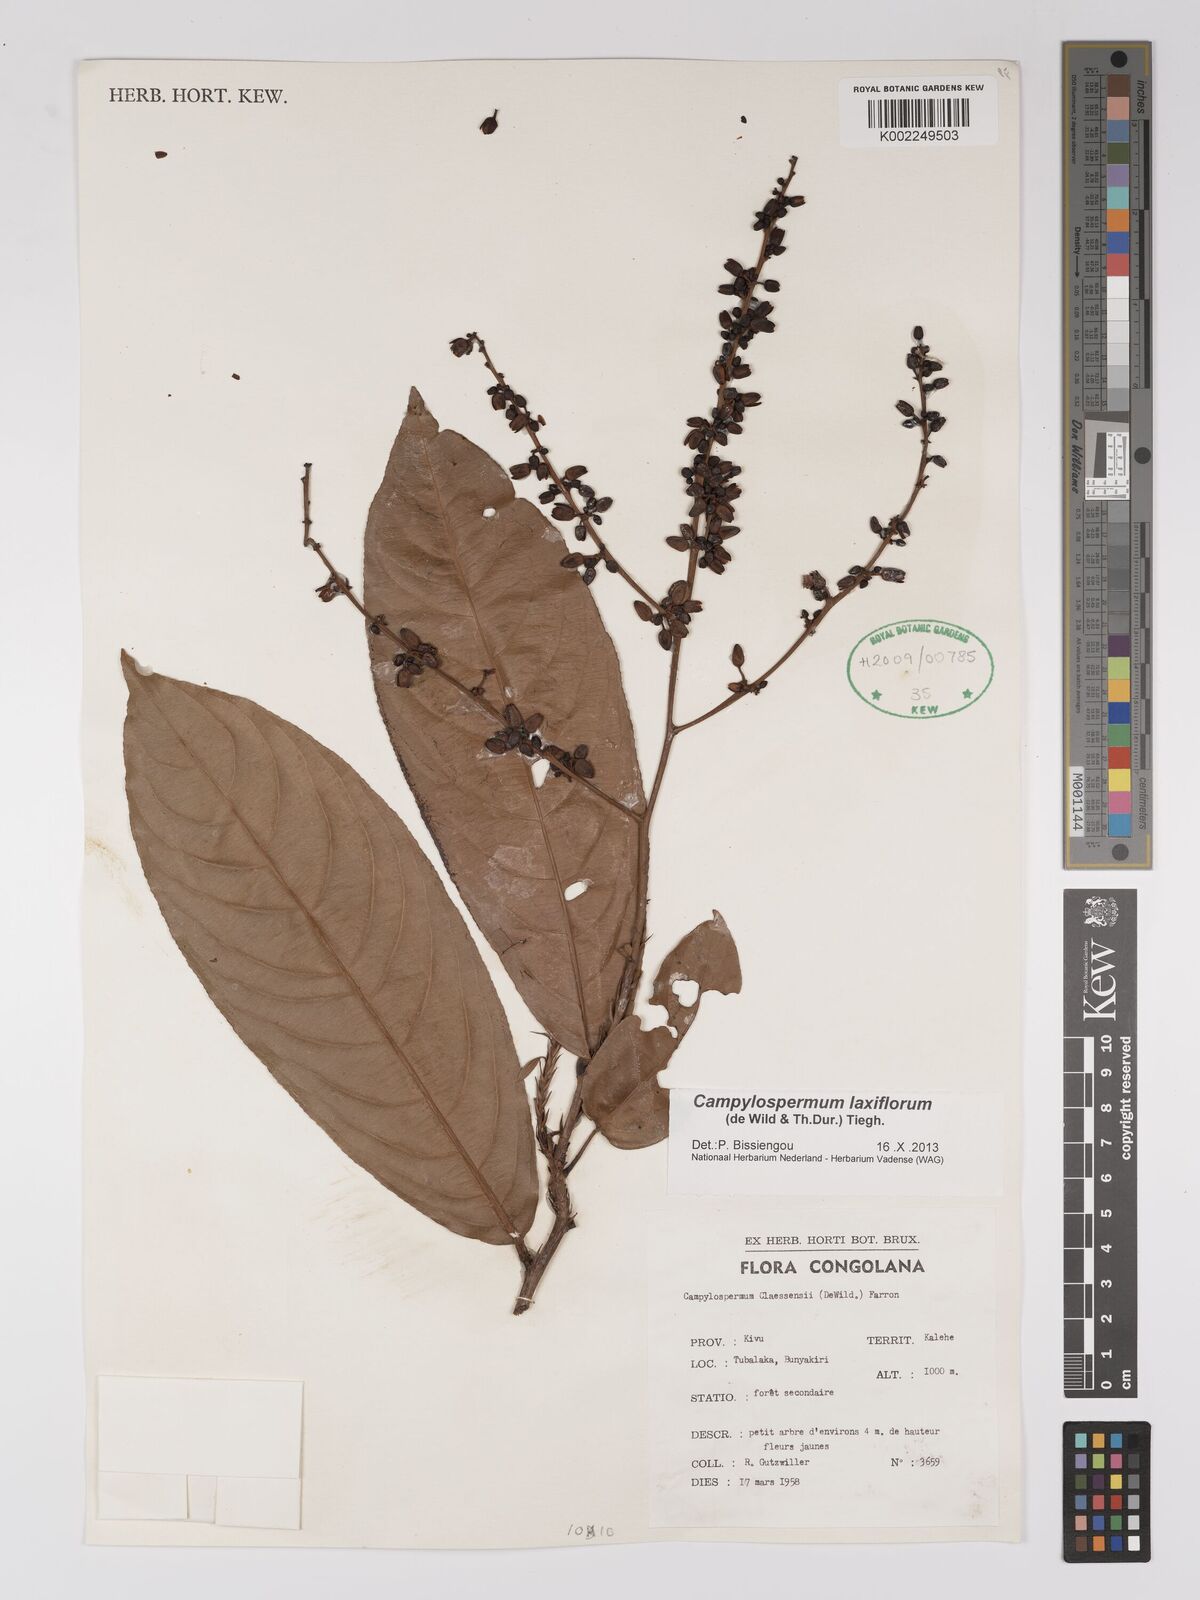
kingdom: Plantae
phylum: Tracheophyta
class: Magnoliopsida
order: Malpighiales
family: Ochnaceae
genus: Campylospermum
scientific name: Campylospermum laxiflorum
